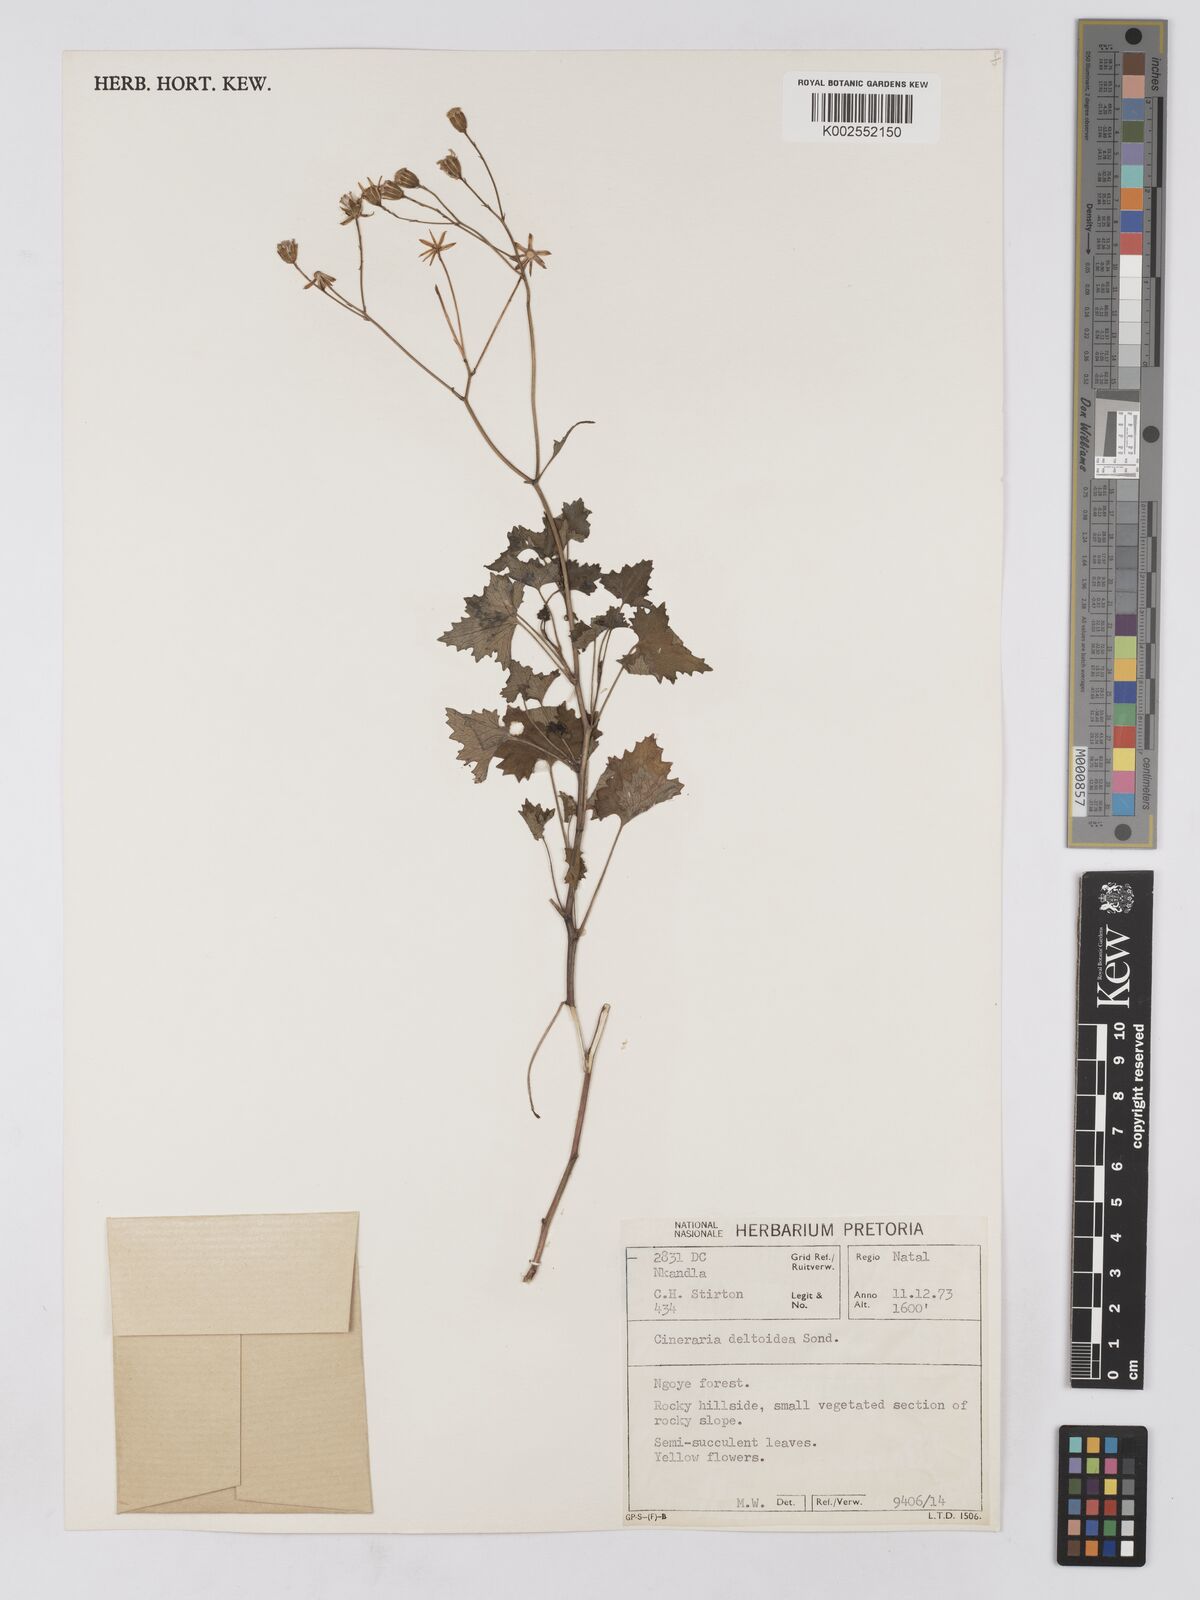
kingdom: Plantae
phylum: Tracheophyta
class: Magnoliopsida
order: Asterales
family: Asteraceae
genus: Cineraria
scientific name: Cineraria deltoidea
